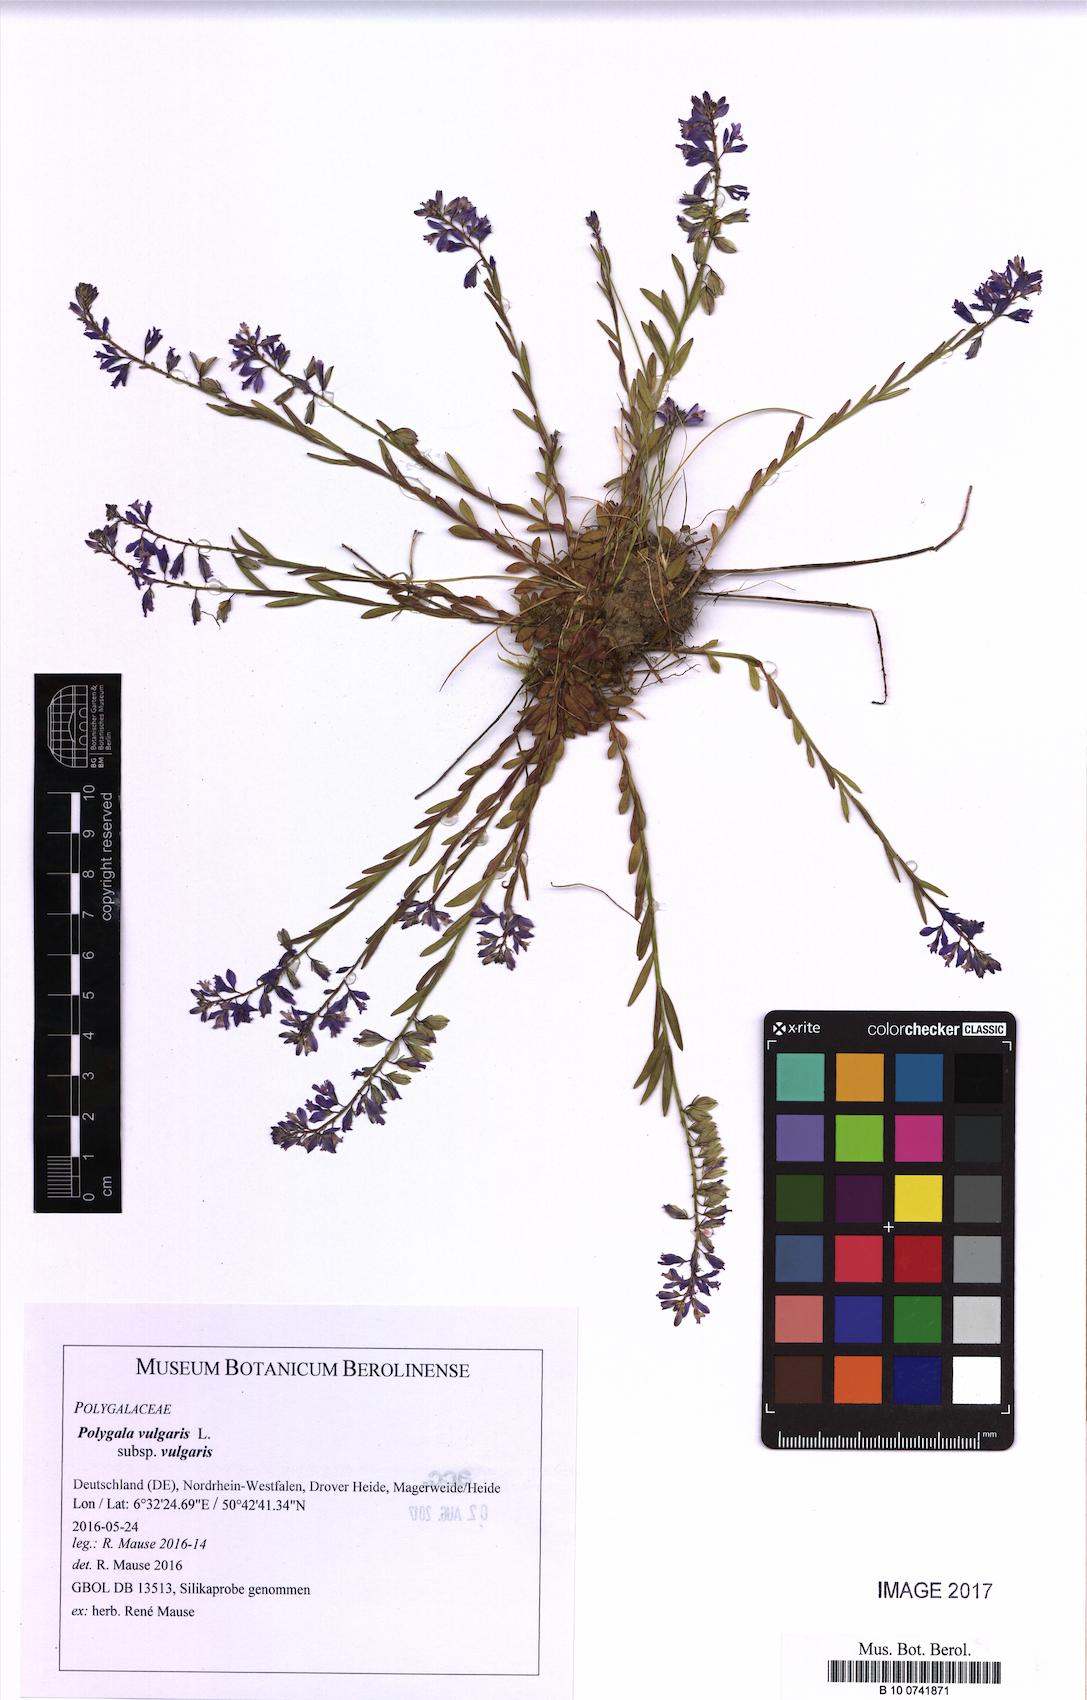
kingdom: Plantae
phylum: Tracheophyta
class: Magnoliopsida
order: Fabales
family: Polygalaceae
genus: Polygala
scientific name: Polygala vulgaris
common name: Common milkwort
